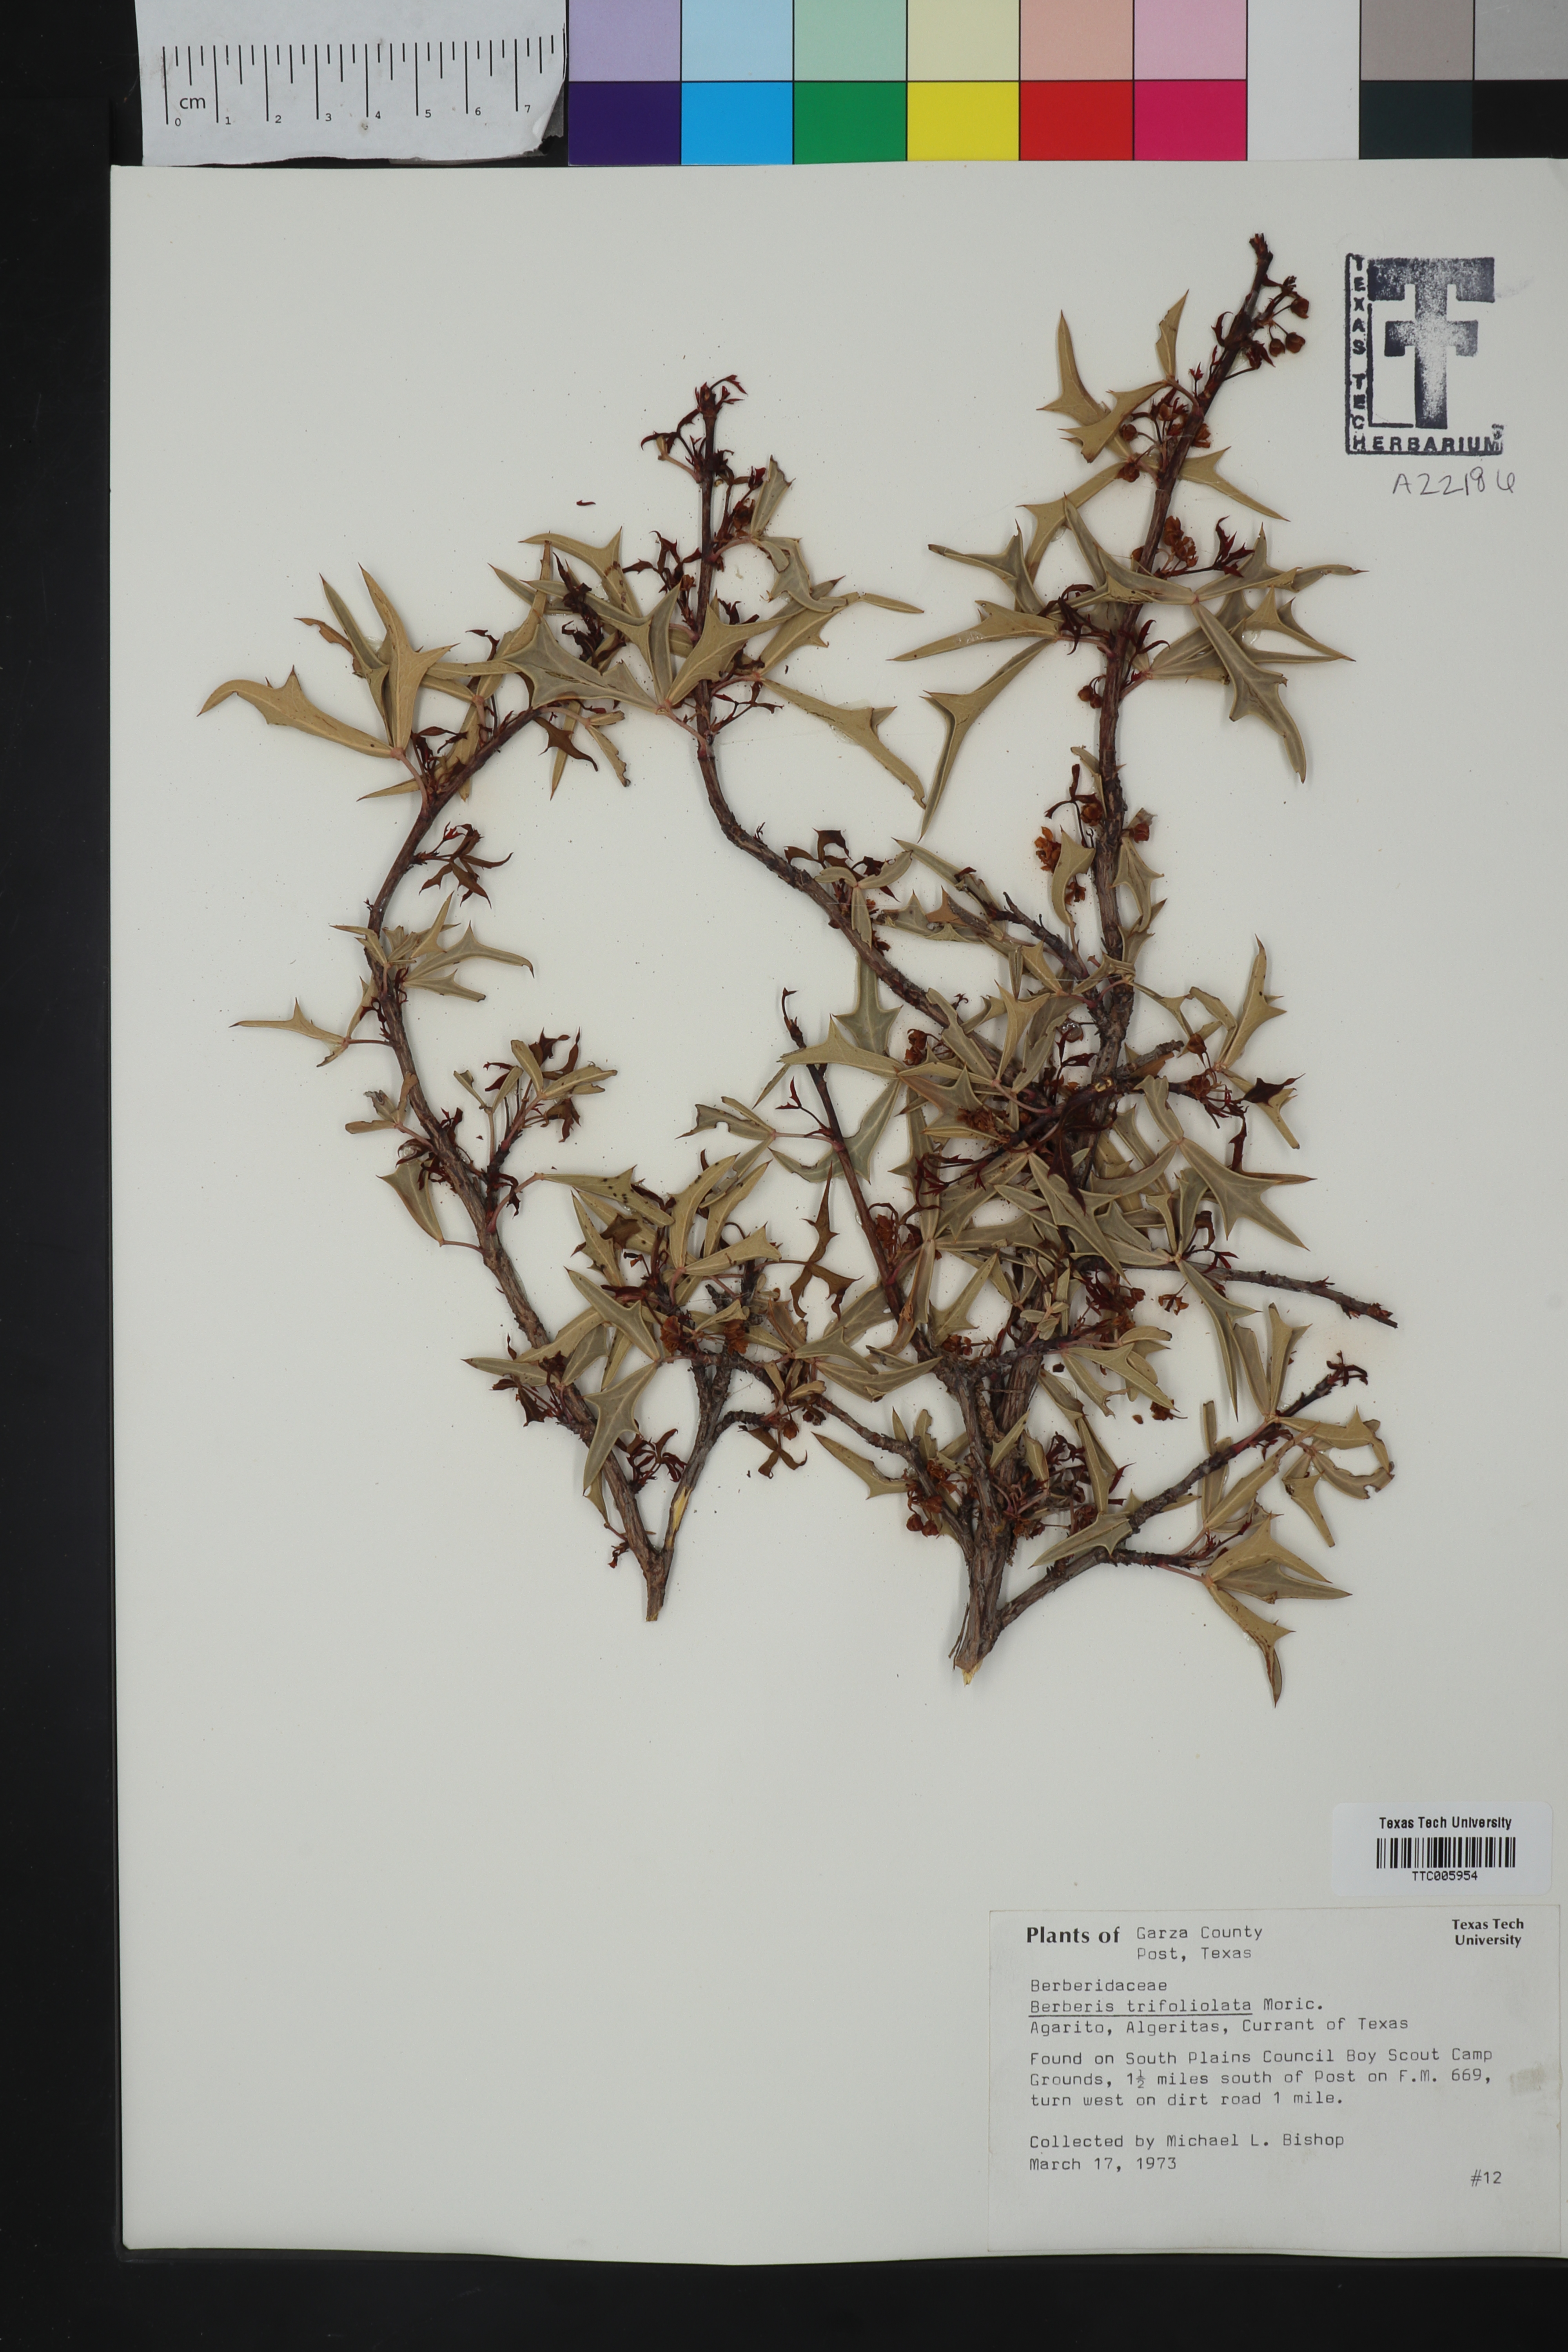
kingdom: Plantae
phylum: Tracheophyta
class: Magnoliopsida
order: Ranunculales
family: Berberidaceae
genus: Alloberberis
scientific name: Alloberberis trifoliolata
